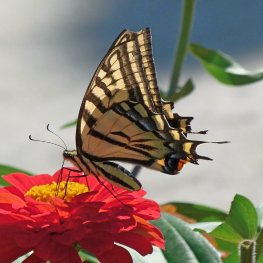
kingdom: Animalia
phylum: Arthropoda
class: Insecta
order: Lepidoptera
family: Papilionidae
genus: Papilio
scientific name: Papilio multicaudata
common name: Two-tailed Swallowtail
